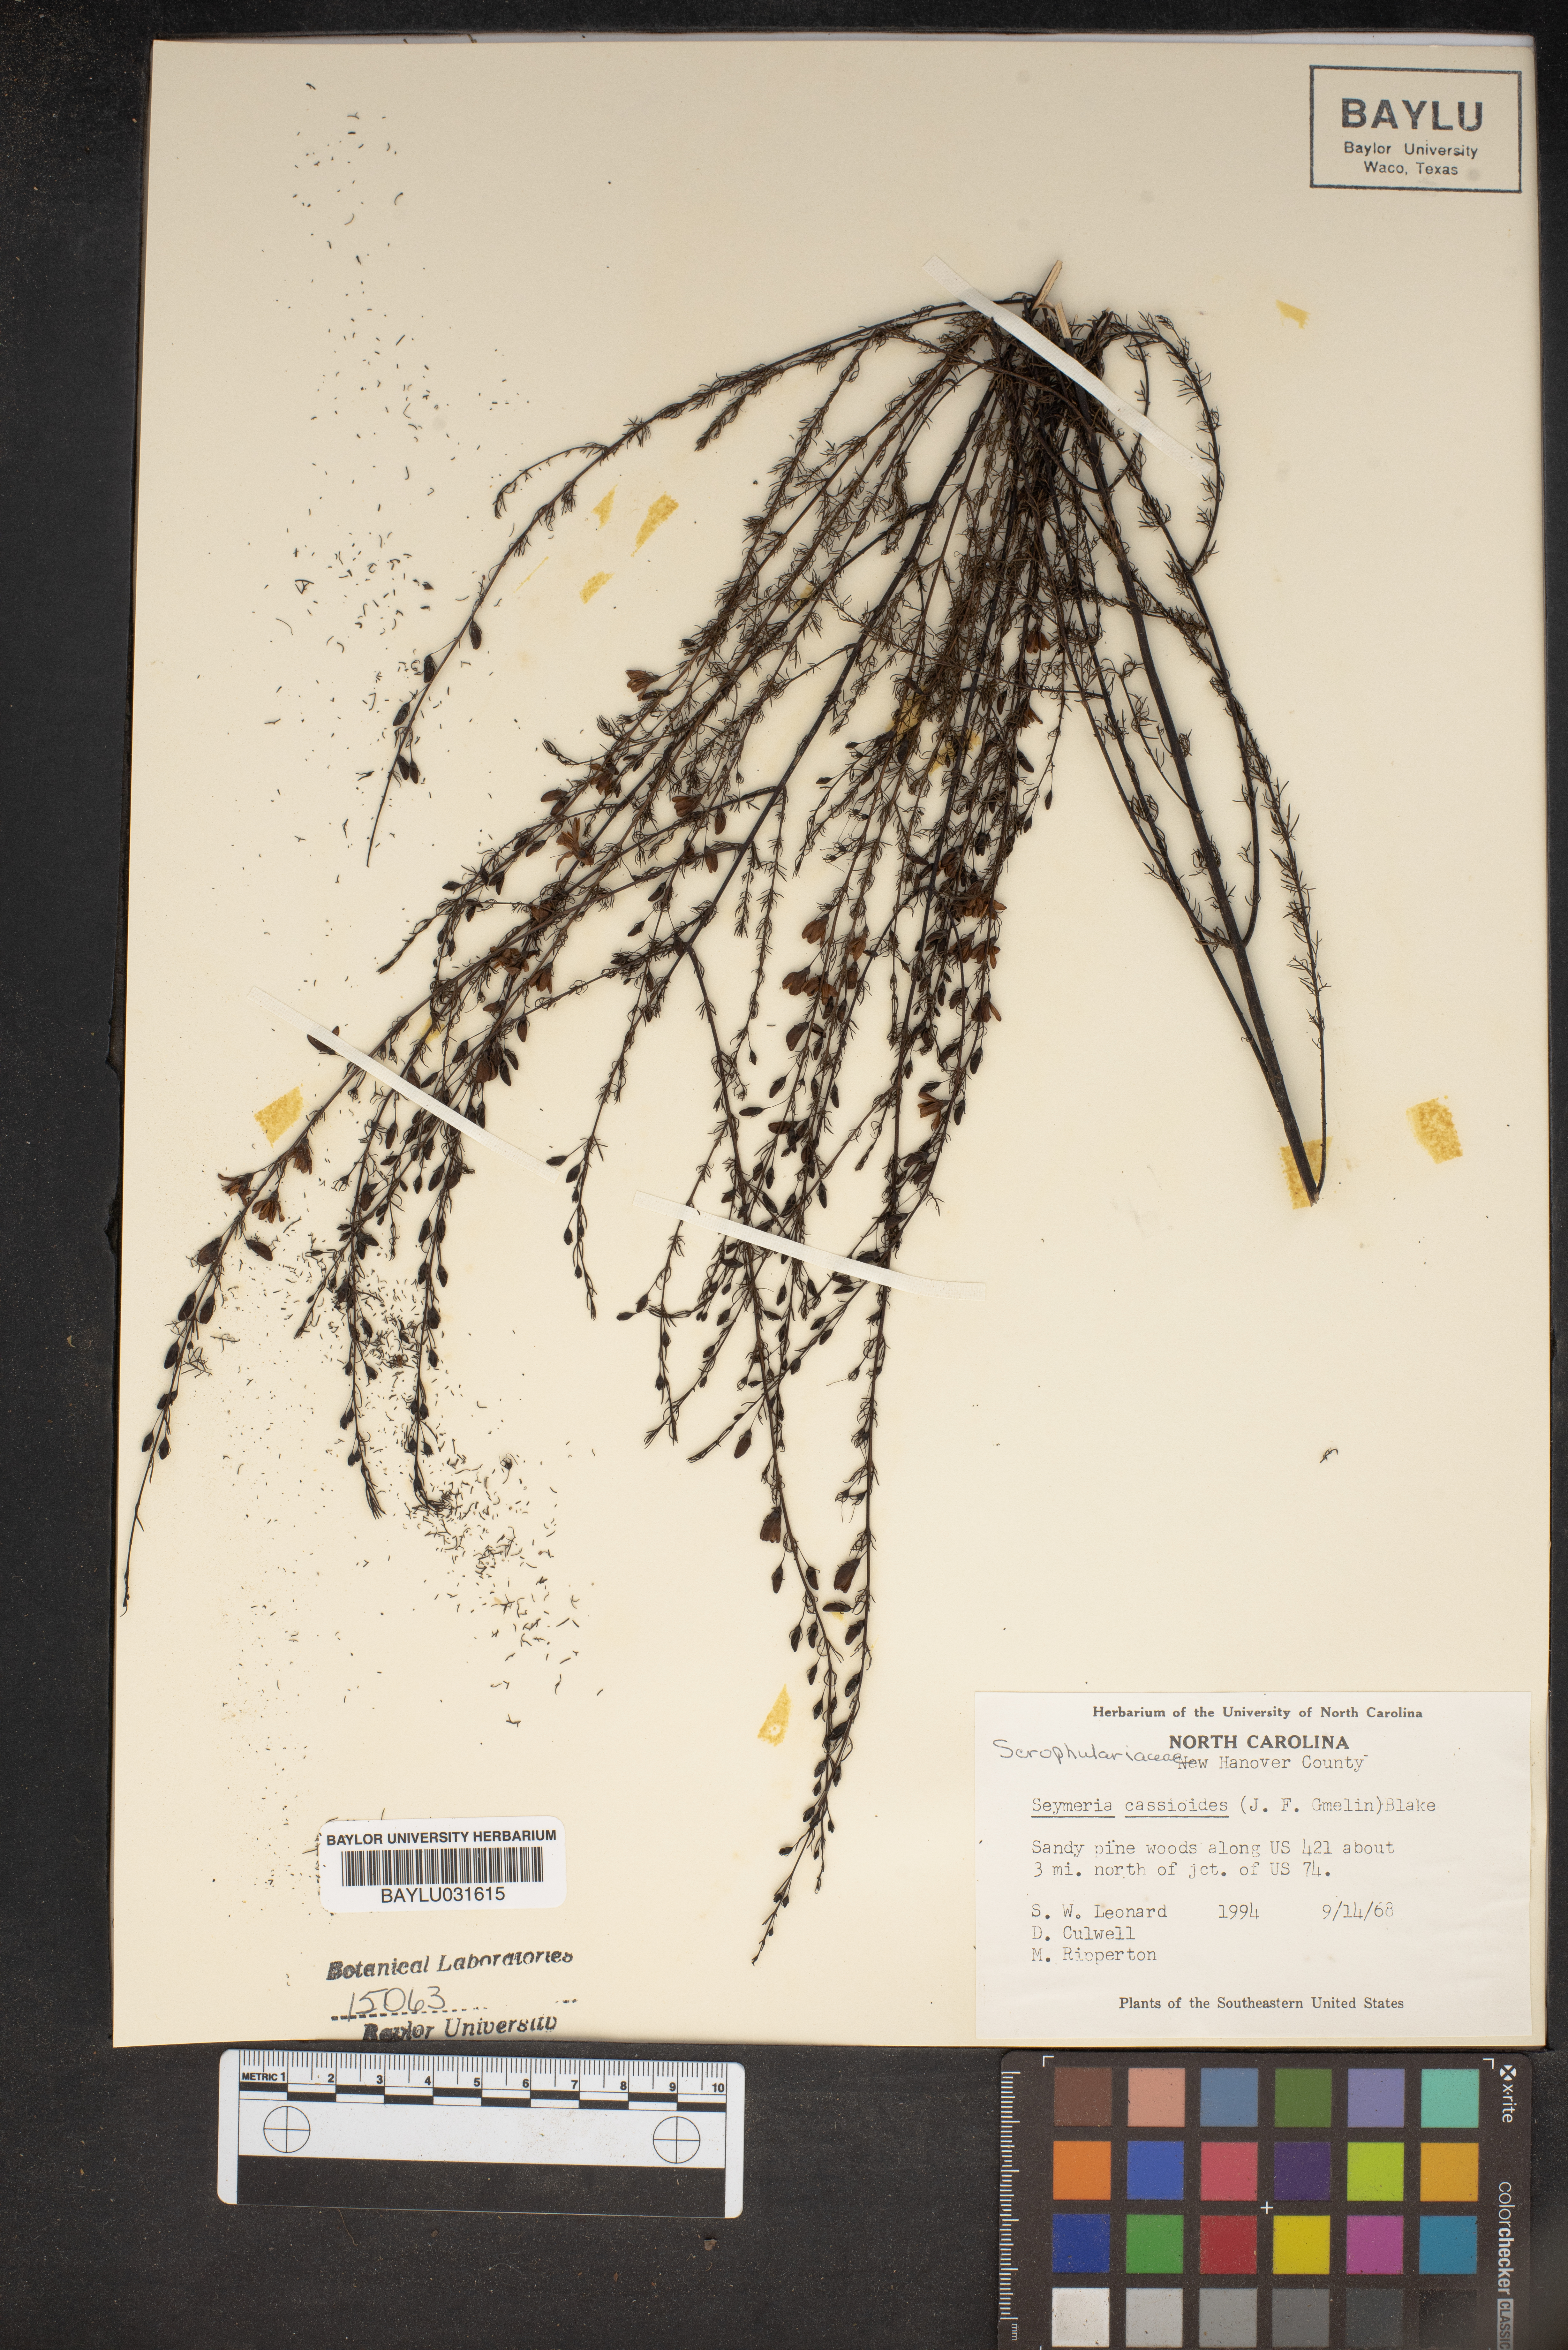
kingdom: Plantae
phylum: Tracheophyta
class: Magnoliopsida
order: Lamiales
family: Orobanchaceae
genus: Seymeria
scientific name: Seymeria cassioides
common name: Yaupon black-senna
